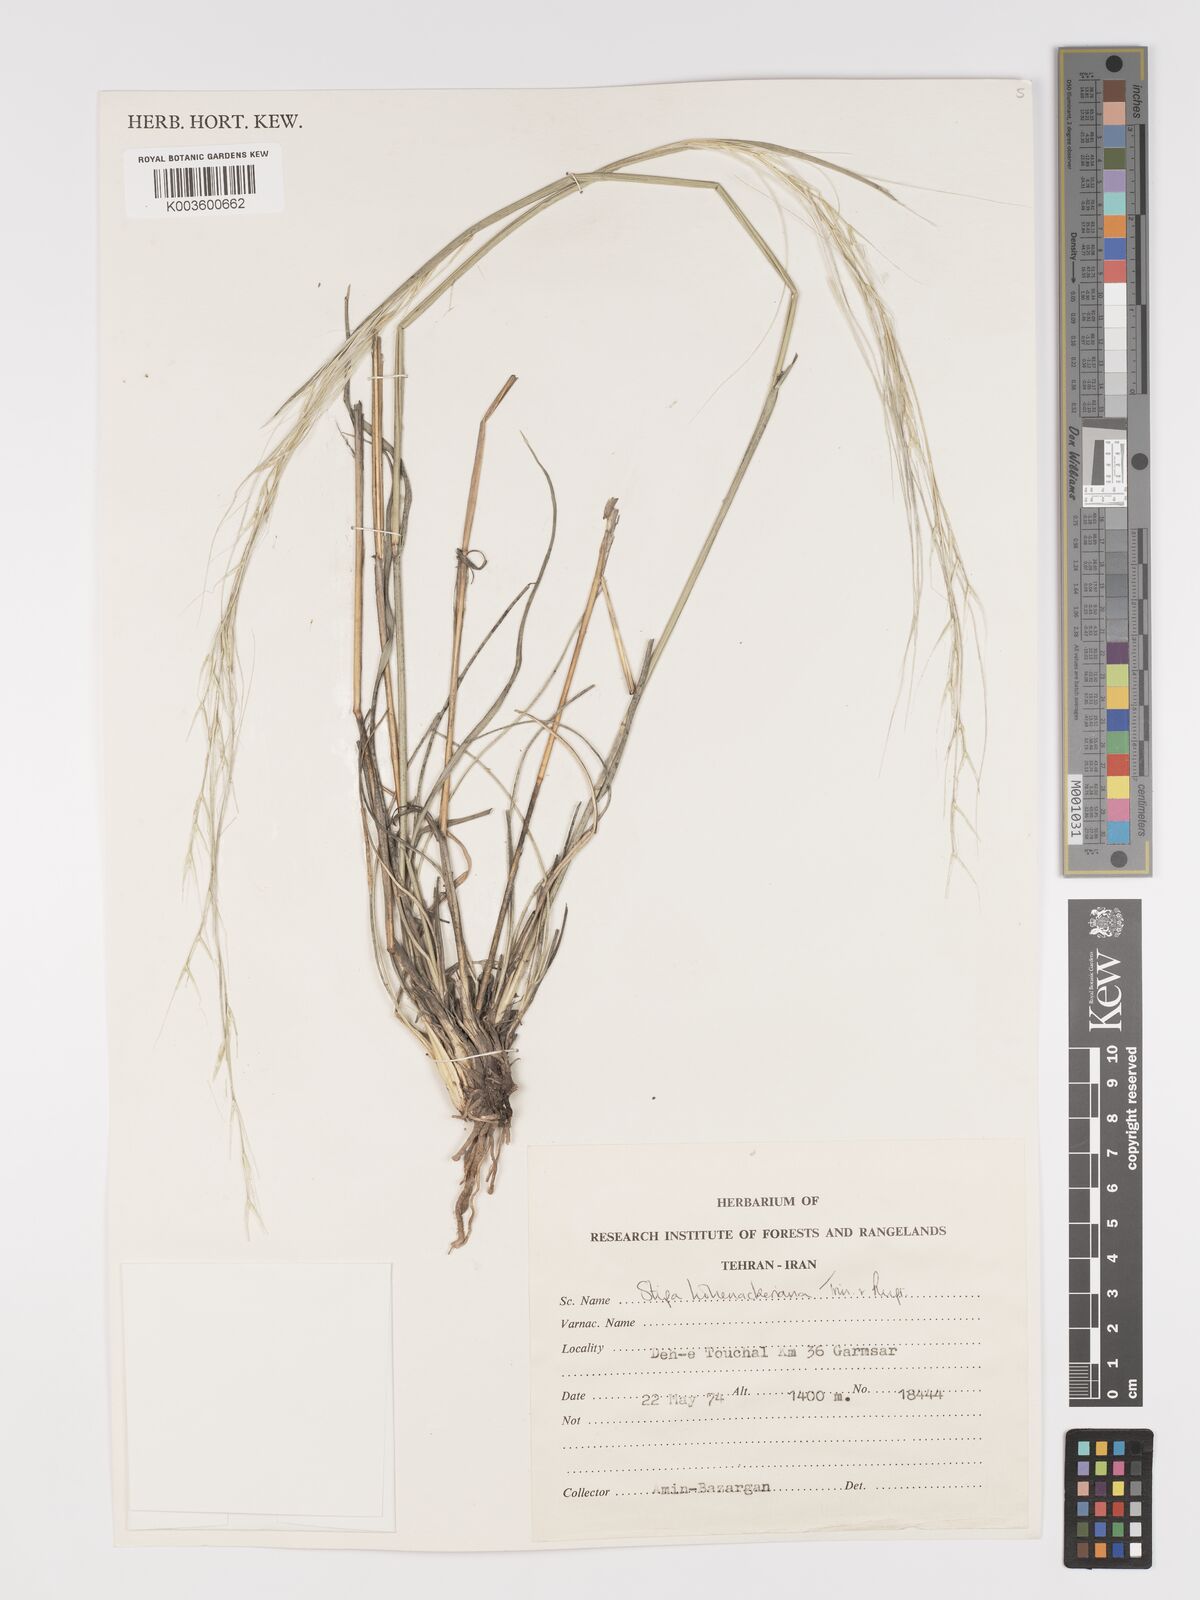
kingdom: Plantae
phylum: Tracheophyta
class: Liliopsida
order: Poales
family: Poaceae
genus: Stipa
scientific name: Stipa hohenackeriana
